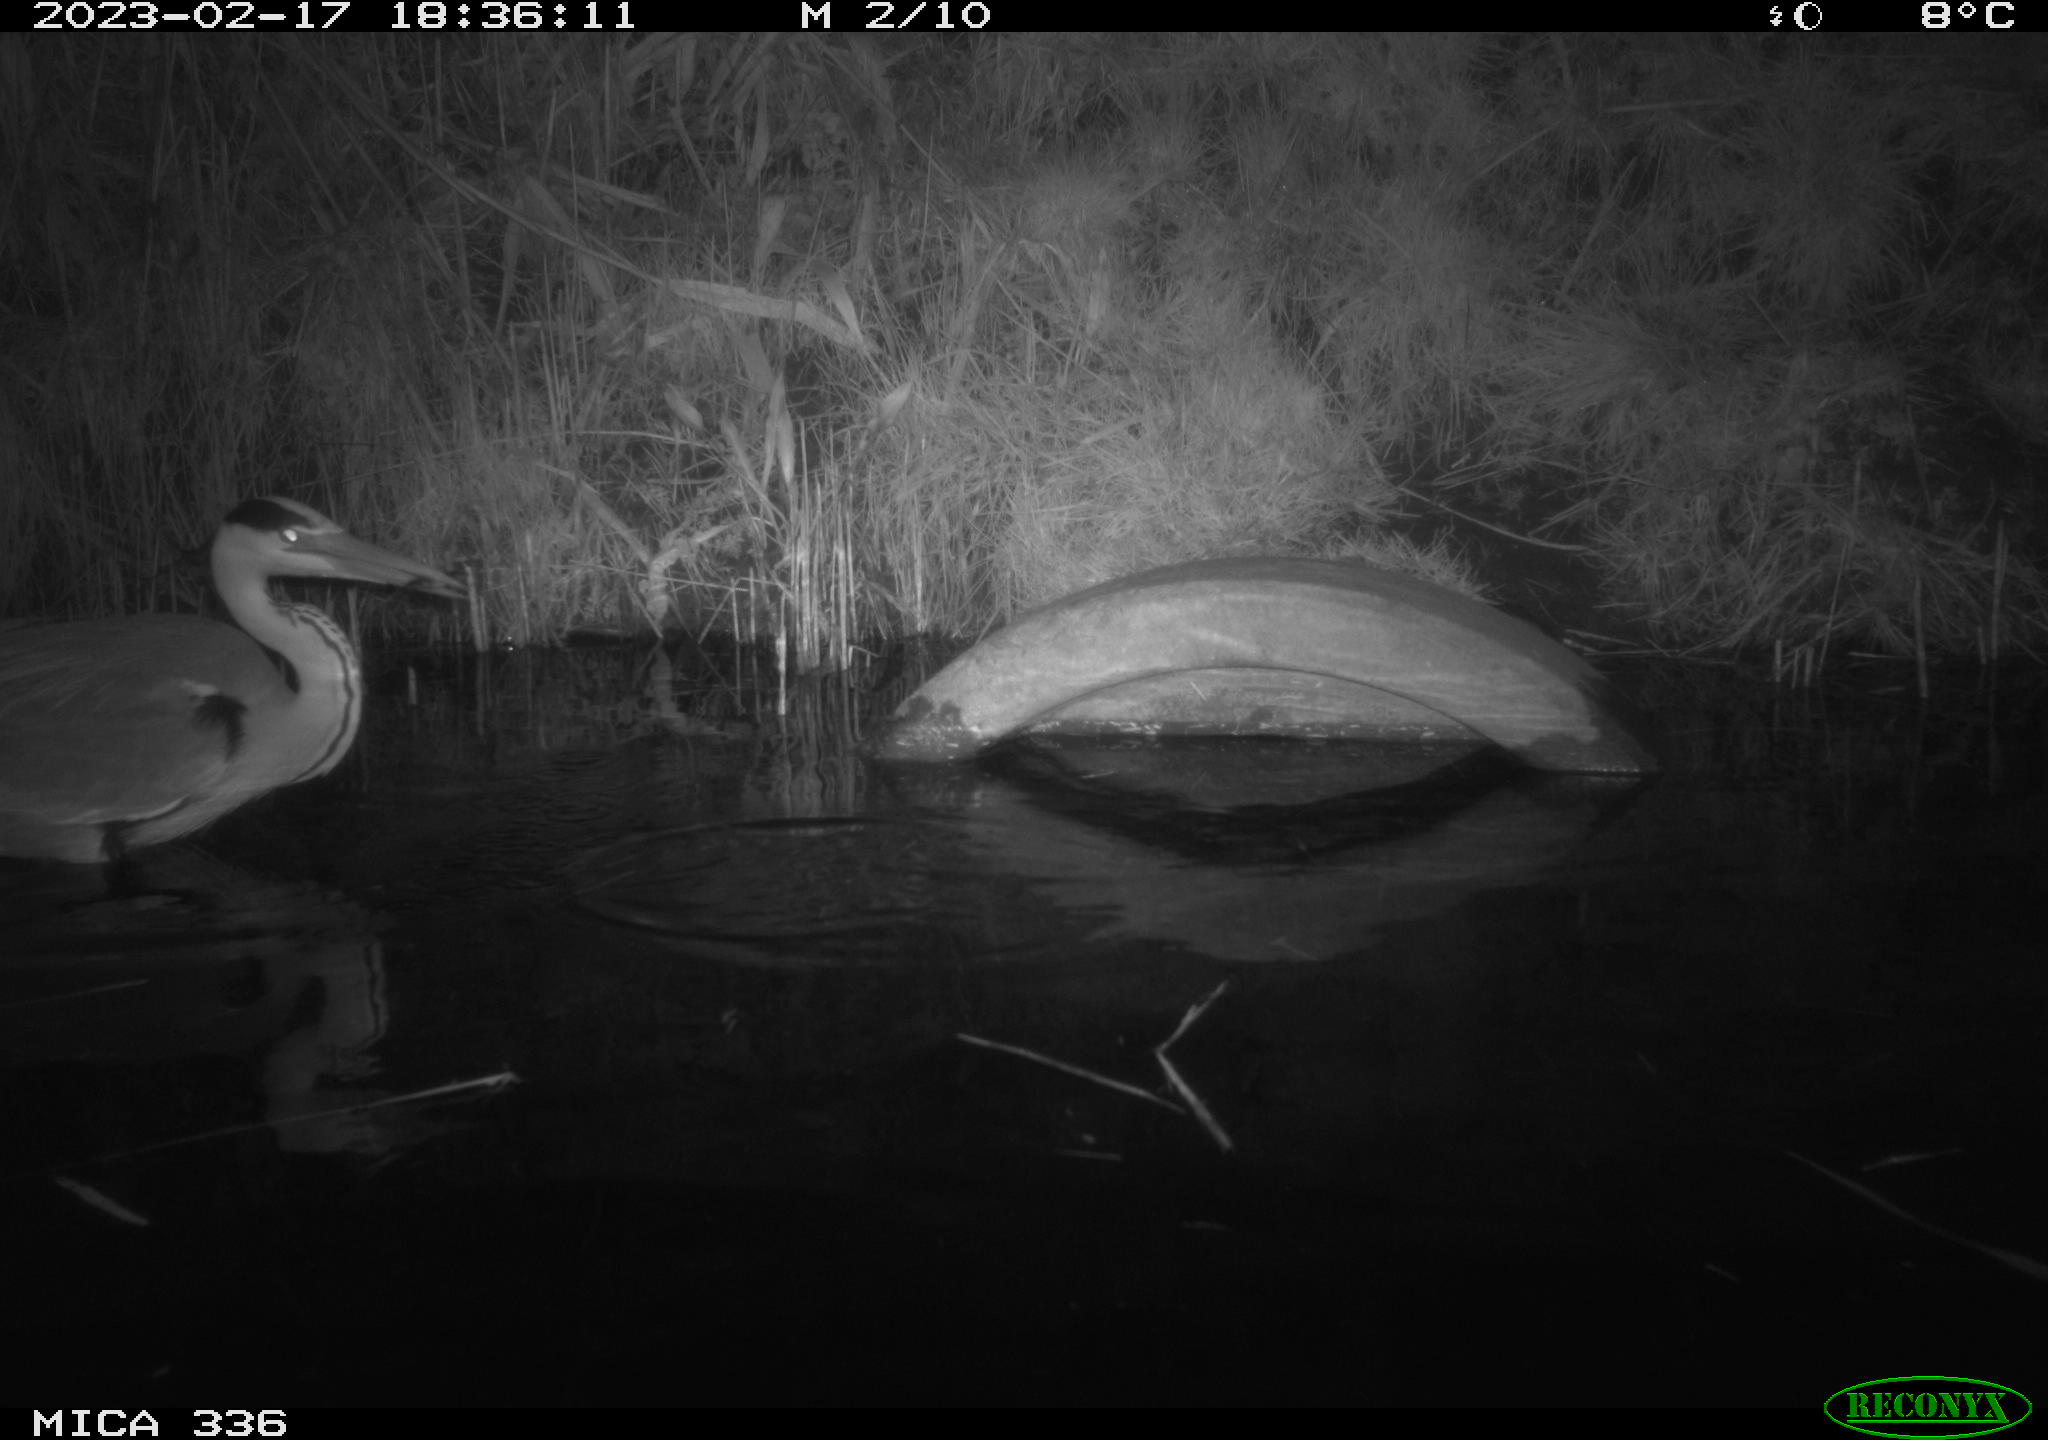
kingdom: Animalia
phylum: Chordata
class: Aves
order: Pelecaniformes
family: Ardeidae
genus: Ardea
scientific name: Ardea cinerea
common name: Grey heron
